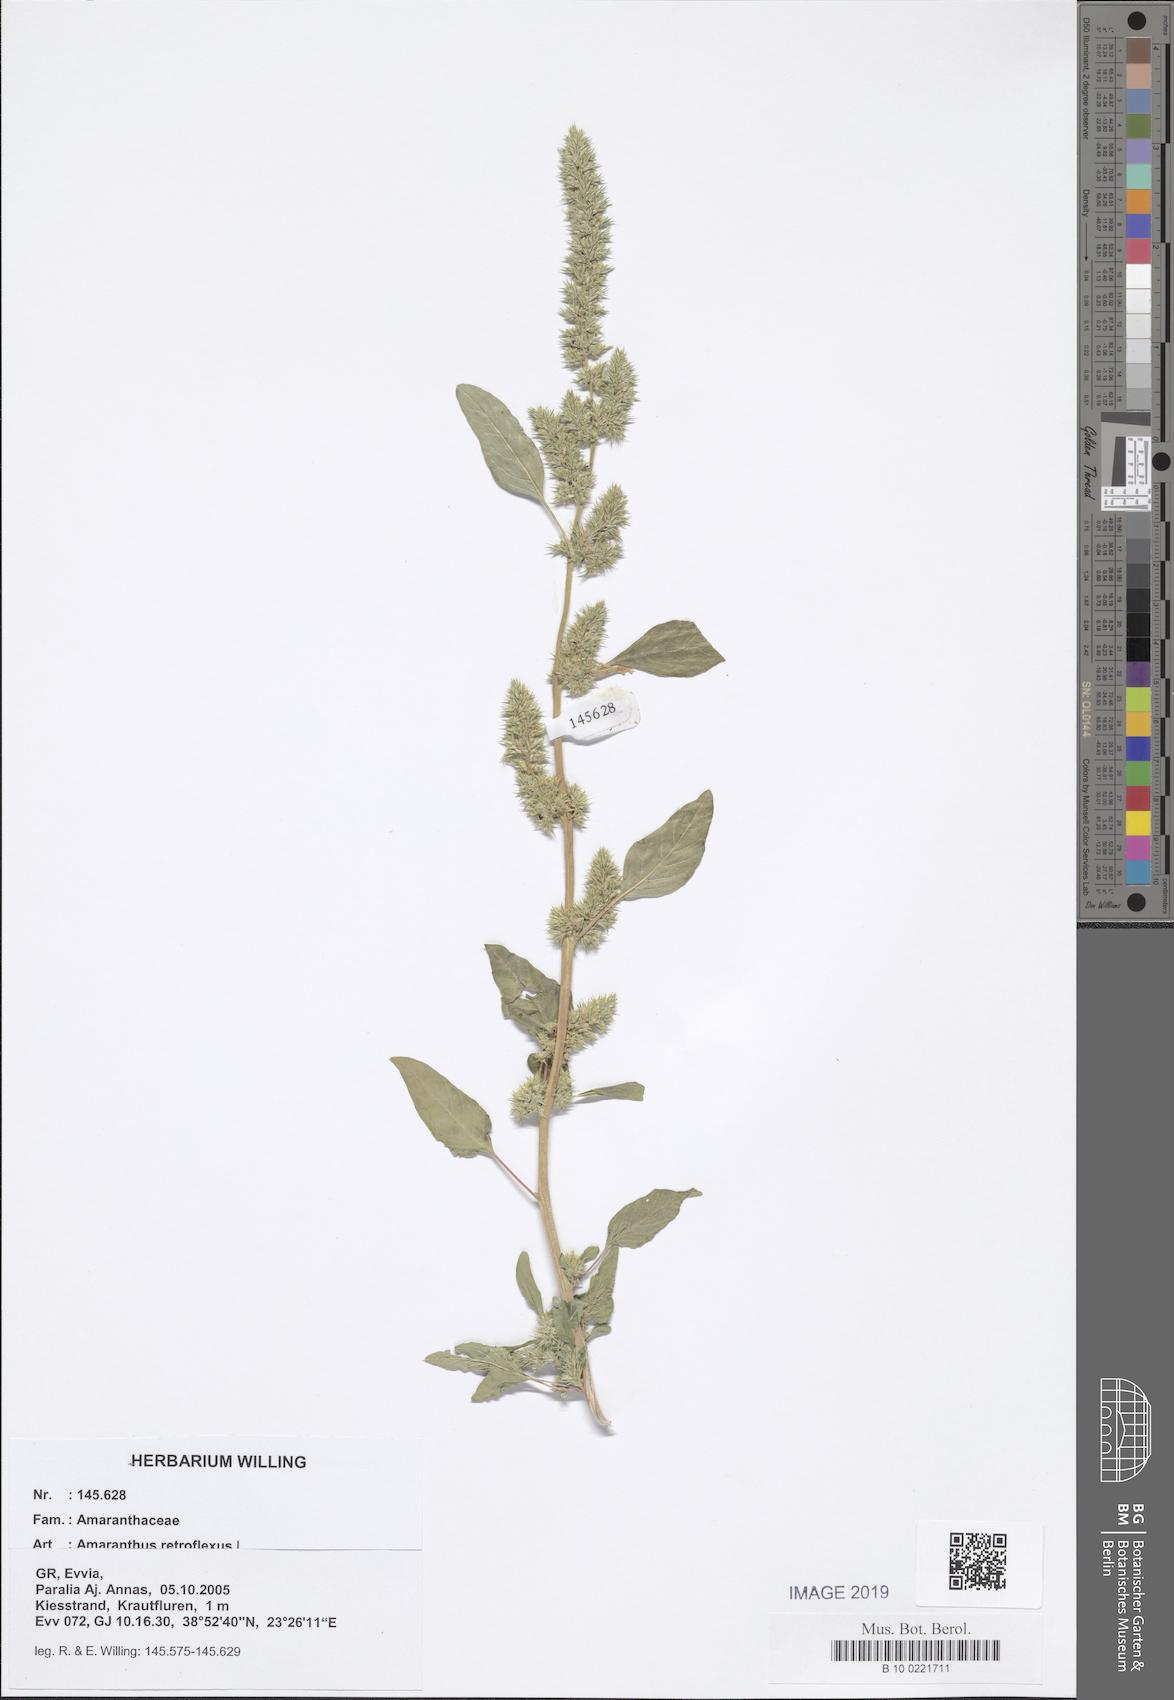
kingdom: Plantae
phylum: Tracheophyta
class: Magnoliopsida
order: Caryophyllales
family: Amaranthaceae
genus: Amaranthus
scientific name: Amaranthus retroflexus
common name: Redroot amaranth
